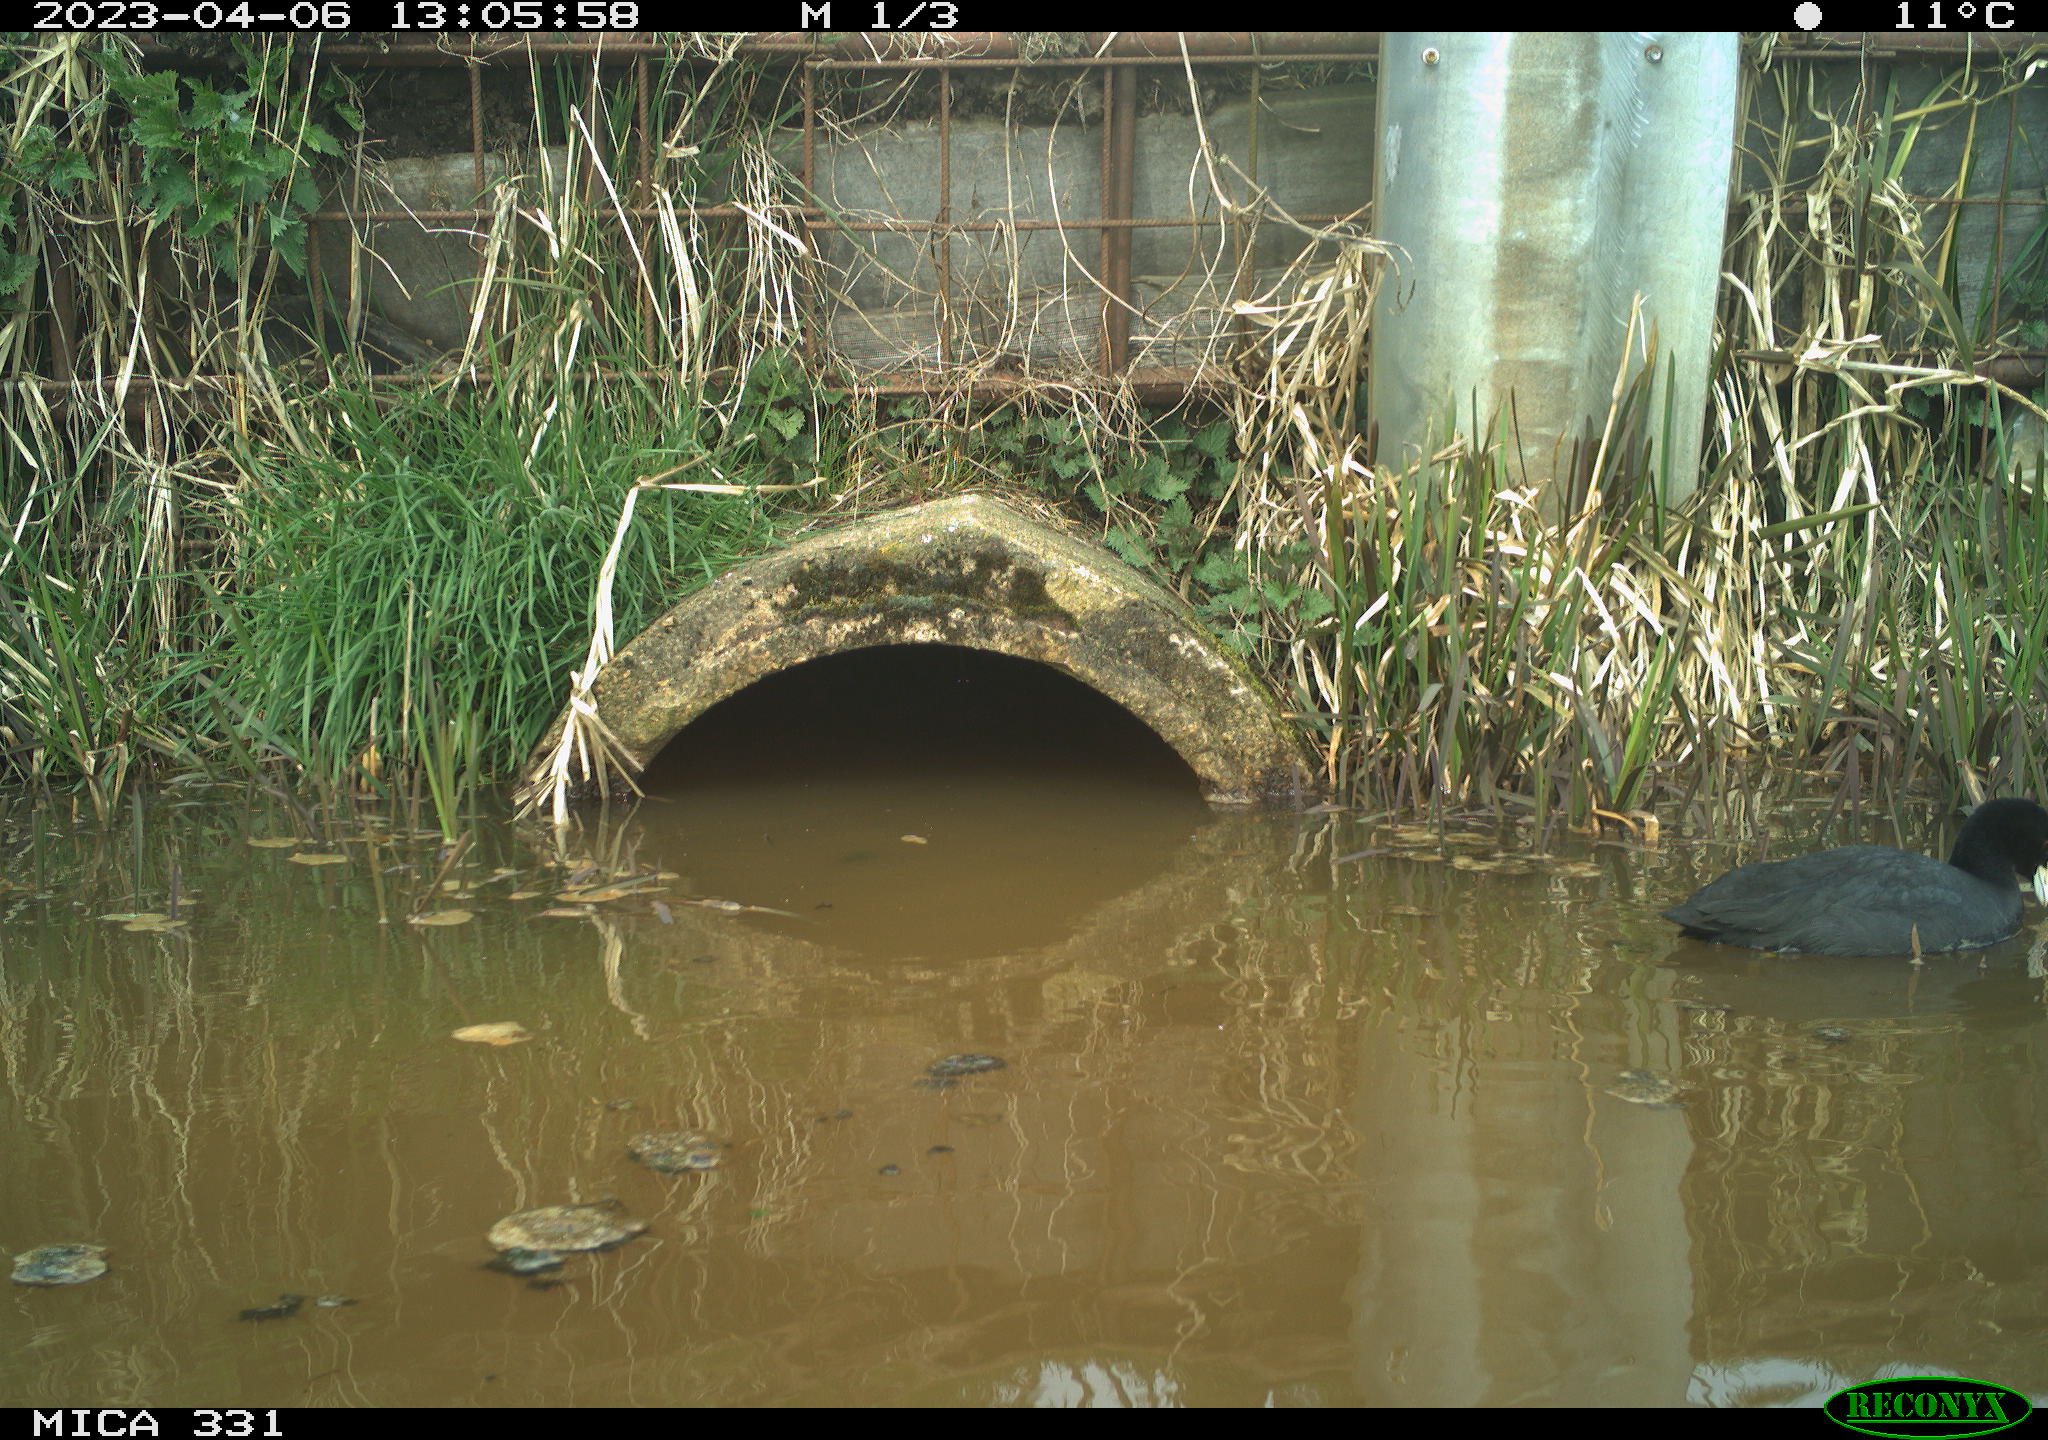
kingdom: Animalia
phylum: Chordata
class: Aves
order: Gruiformes
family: Rallidae
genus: Fulica
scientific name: Fulica atra
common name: Eurasian coot
